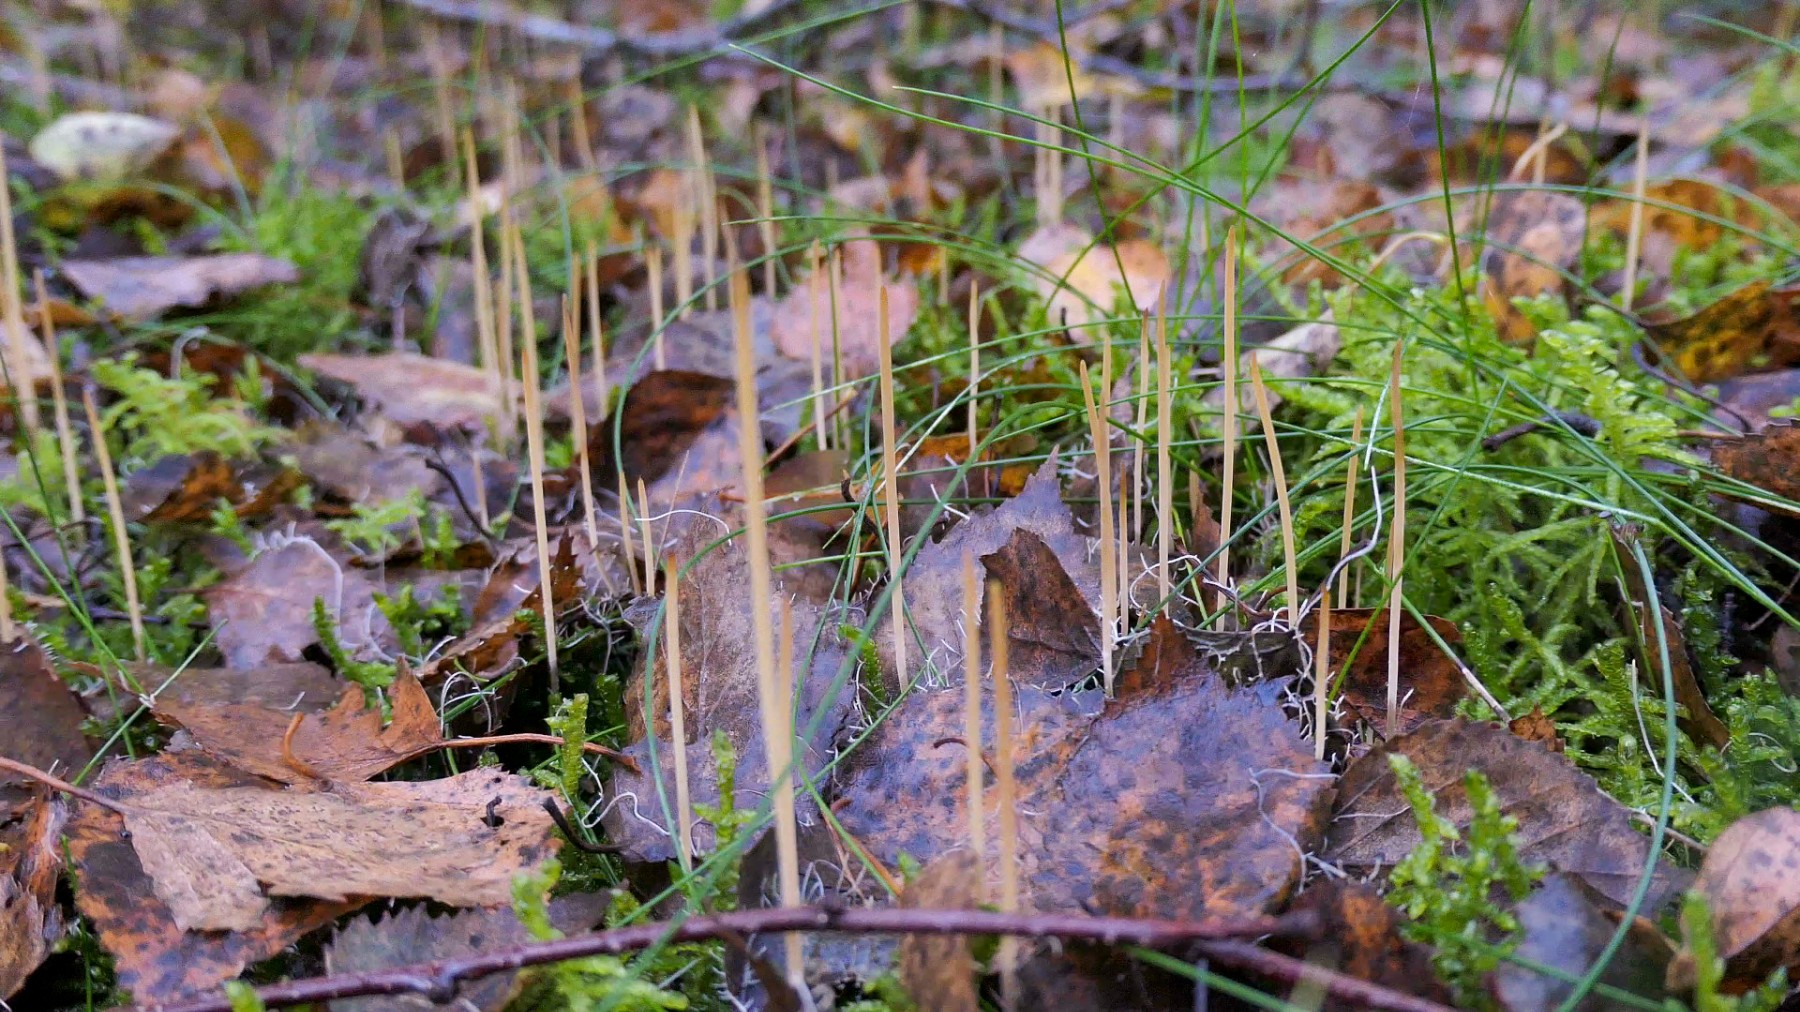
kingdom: Fungi
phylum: Basidiomycota
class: Agaricomycetes
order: Agaricales
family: Typhulaceae
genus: Typhula
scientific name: Typhula juncea
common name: trådagtig rørkølle
